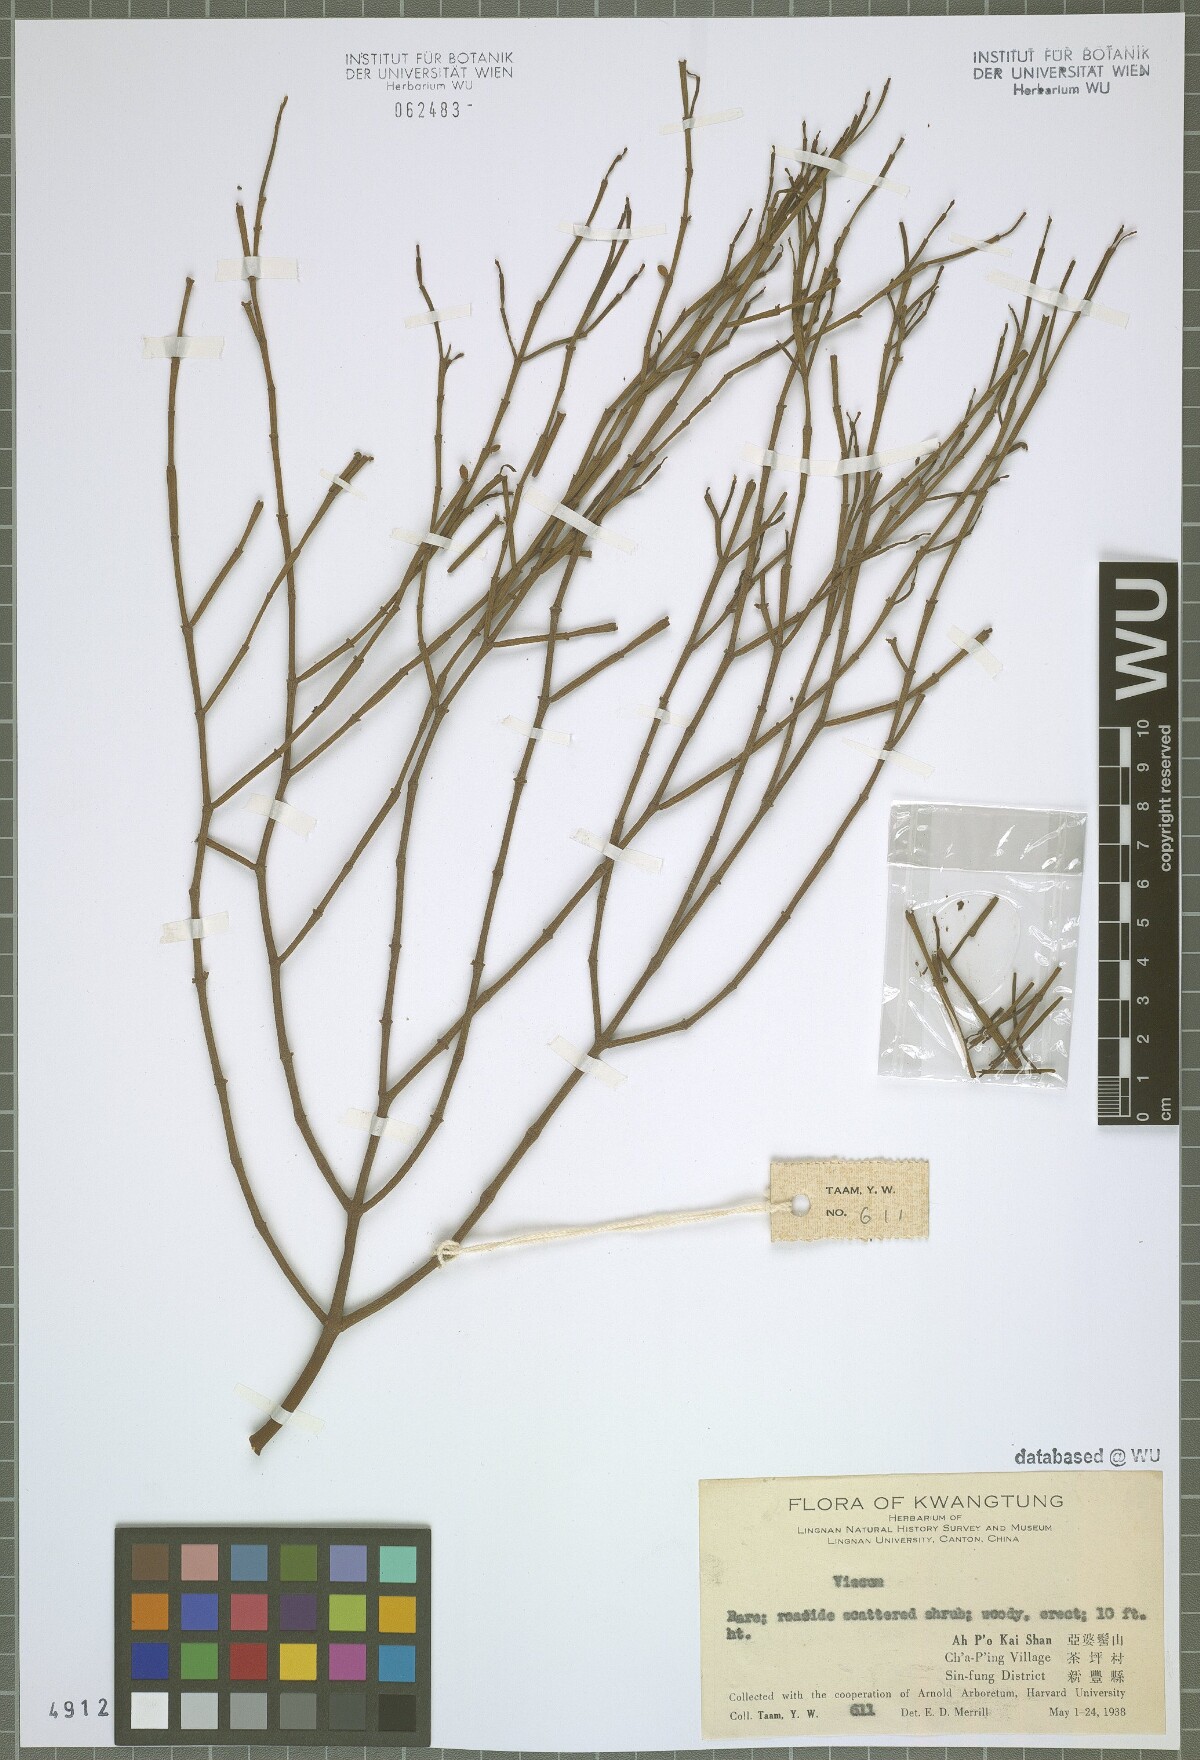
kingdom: Plantae
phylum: Tracheophyta
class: Magnoliopsida
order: Santalales
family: Viscaceae
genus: Viscum
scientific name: Viscum
